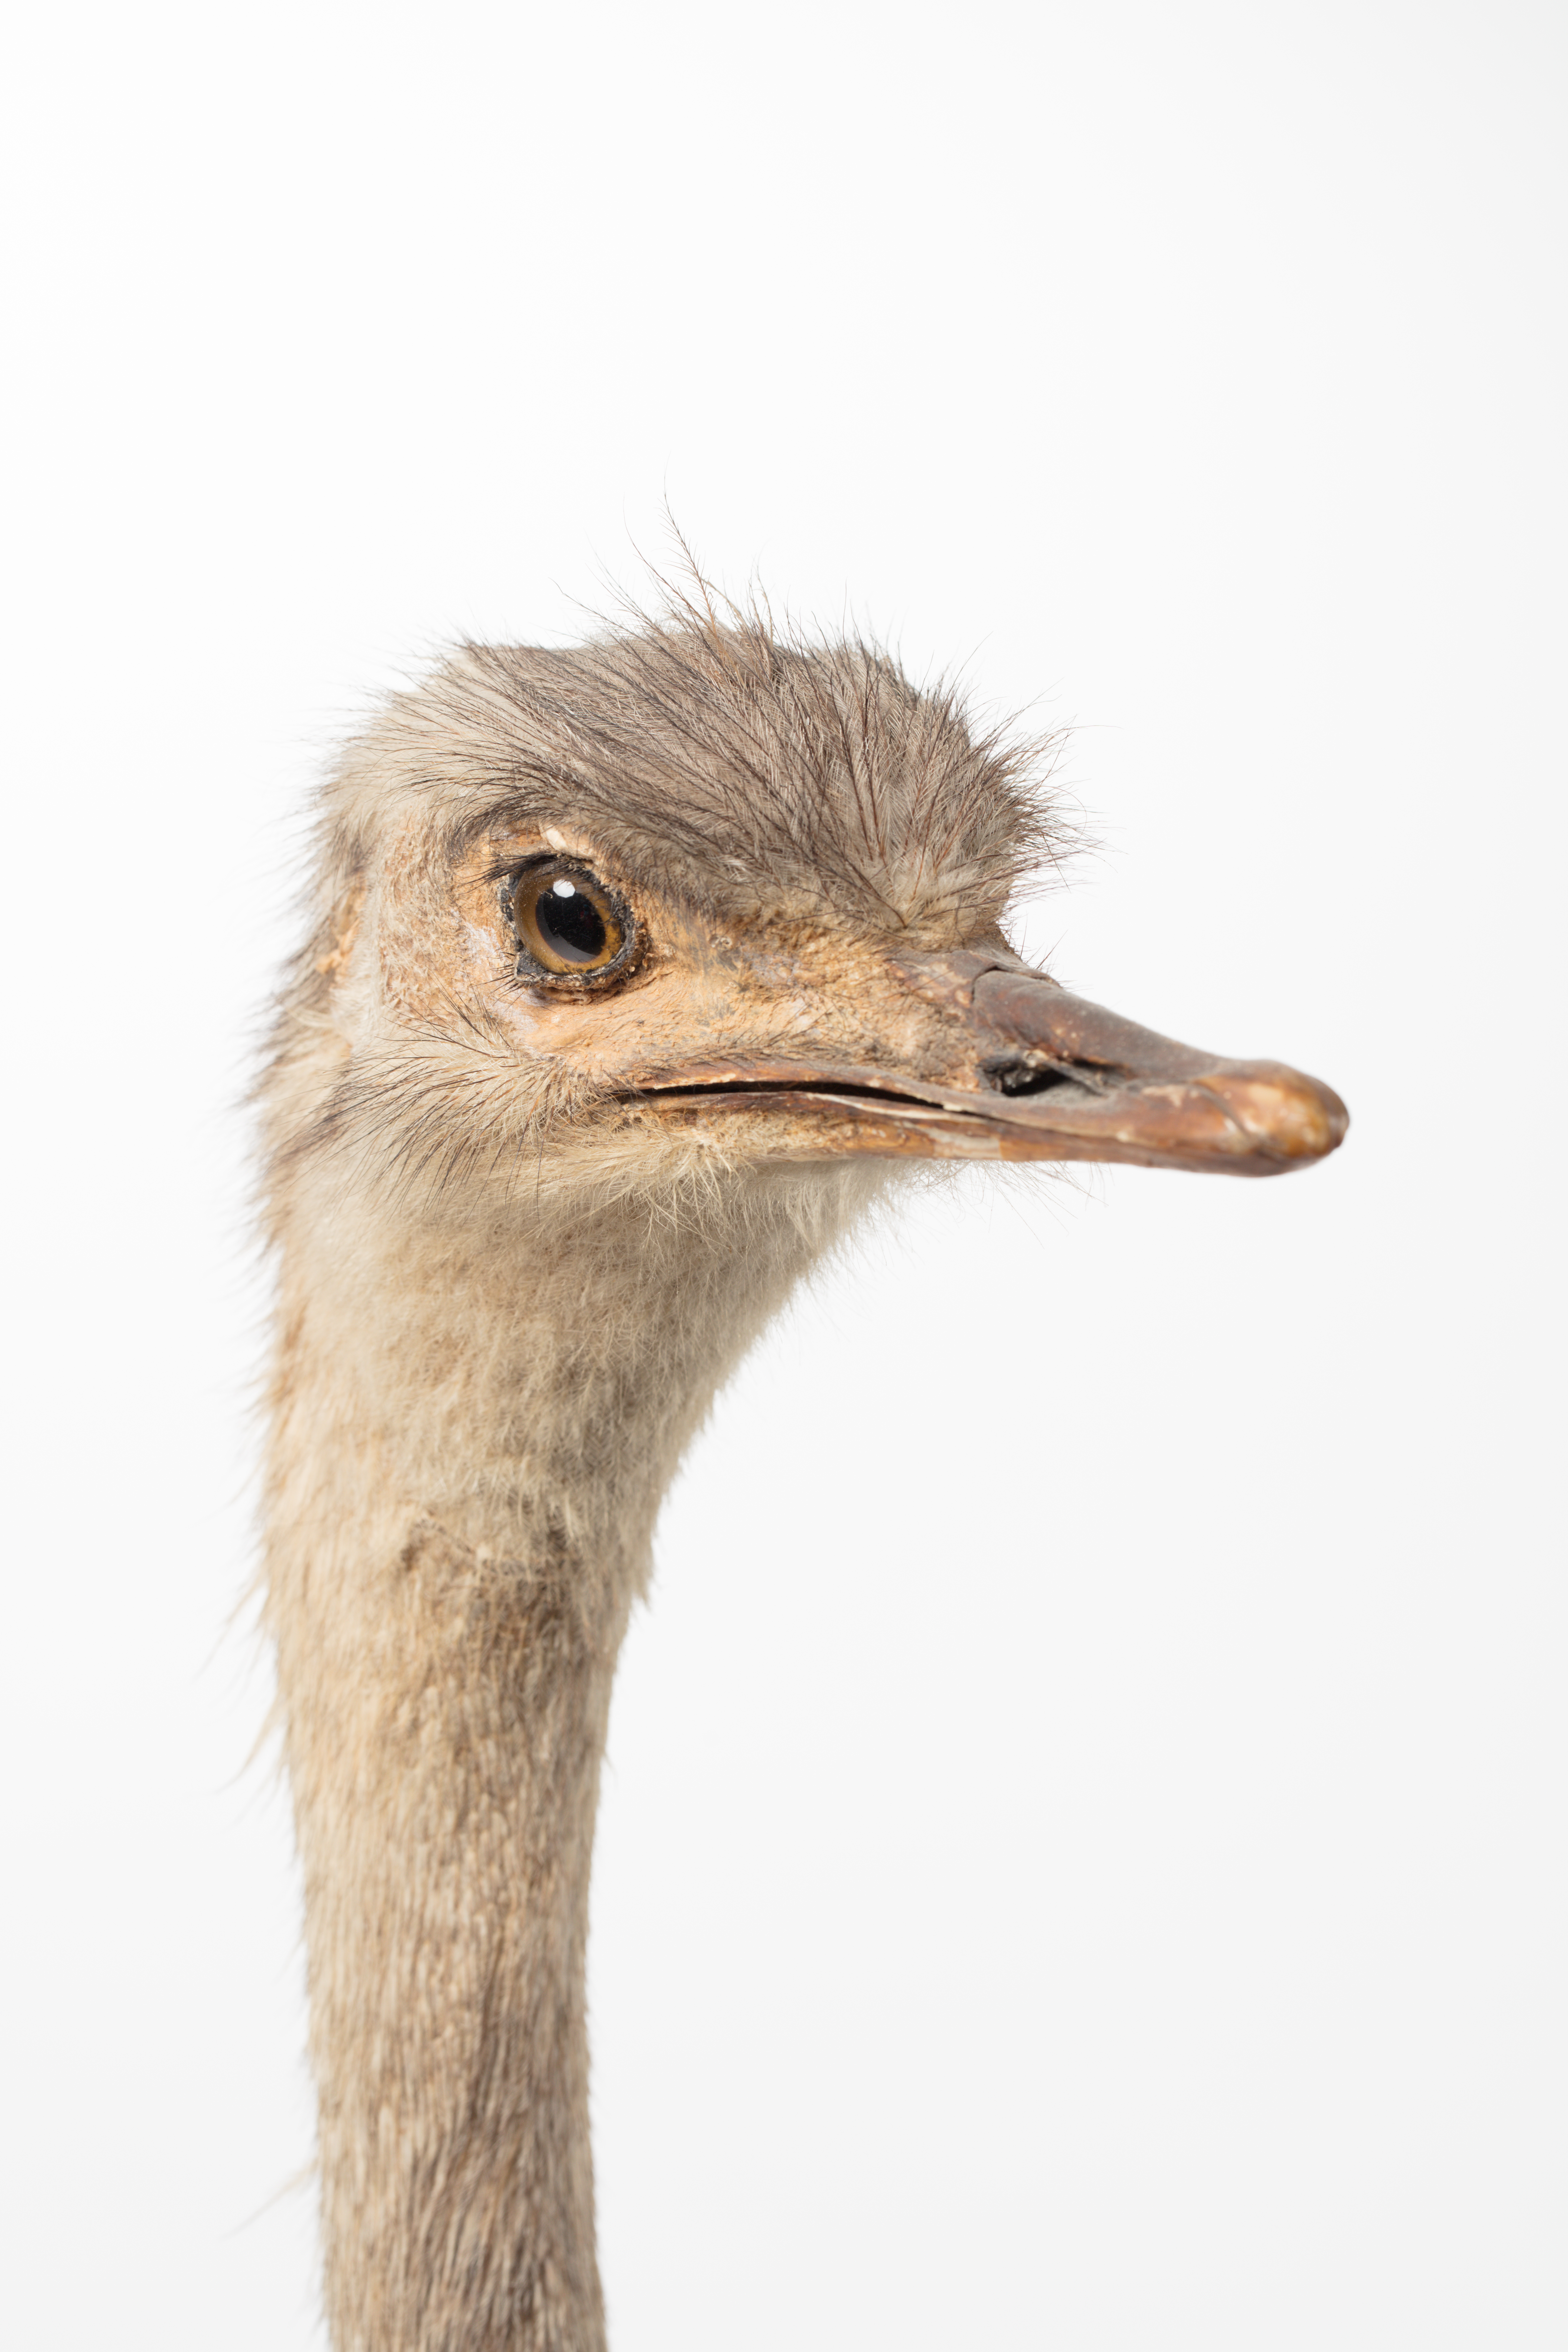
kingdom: Animalia
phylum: Chordata
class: Aves
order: Rheiformes
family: Rheidae
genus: Rhea
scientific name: Rhea americana
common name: Greater rhea
